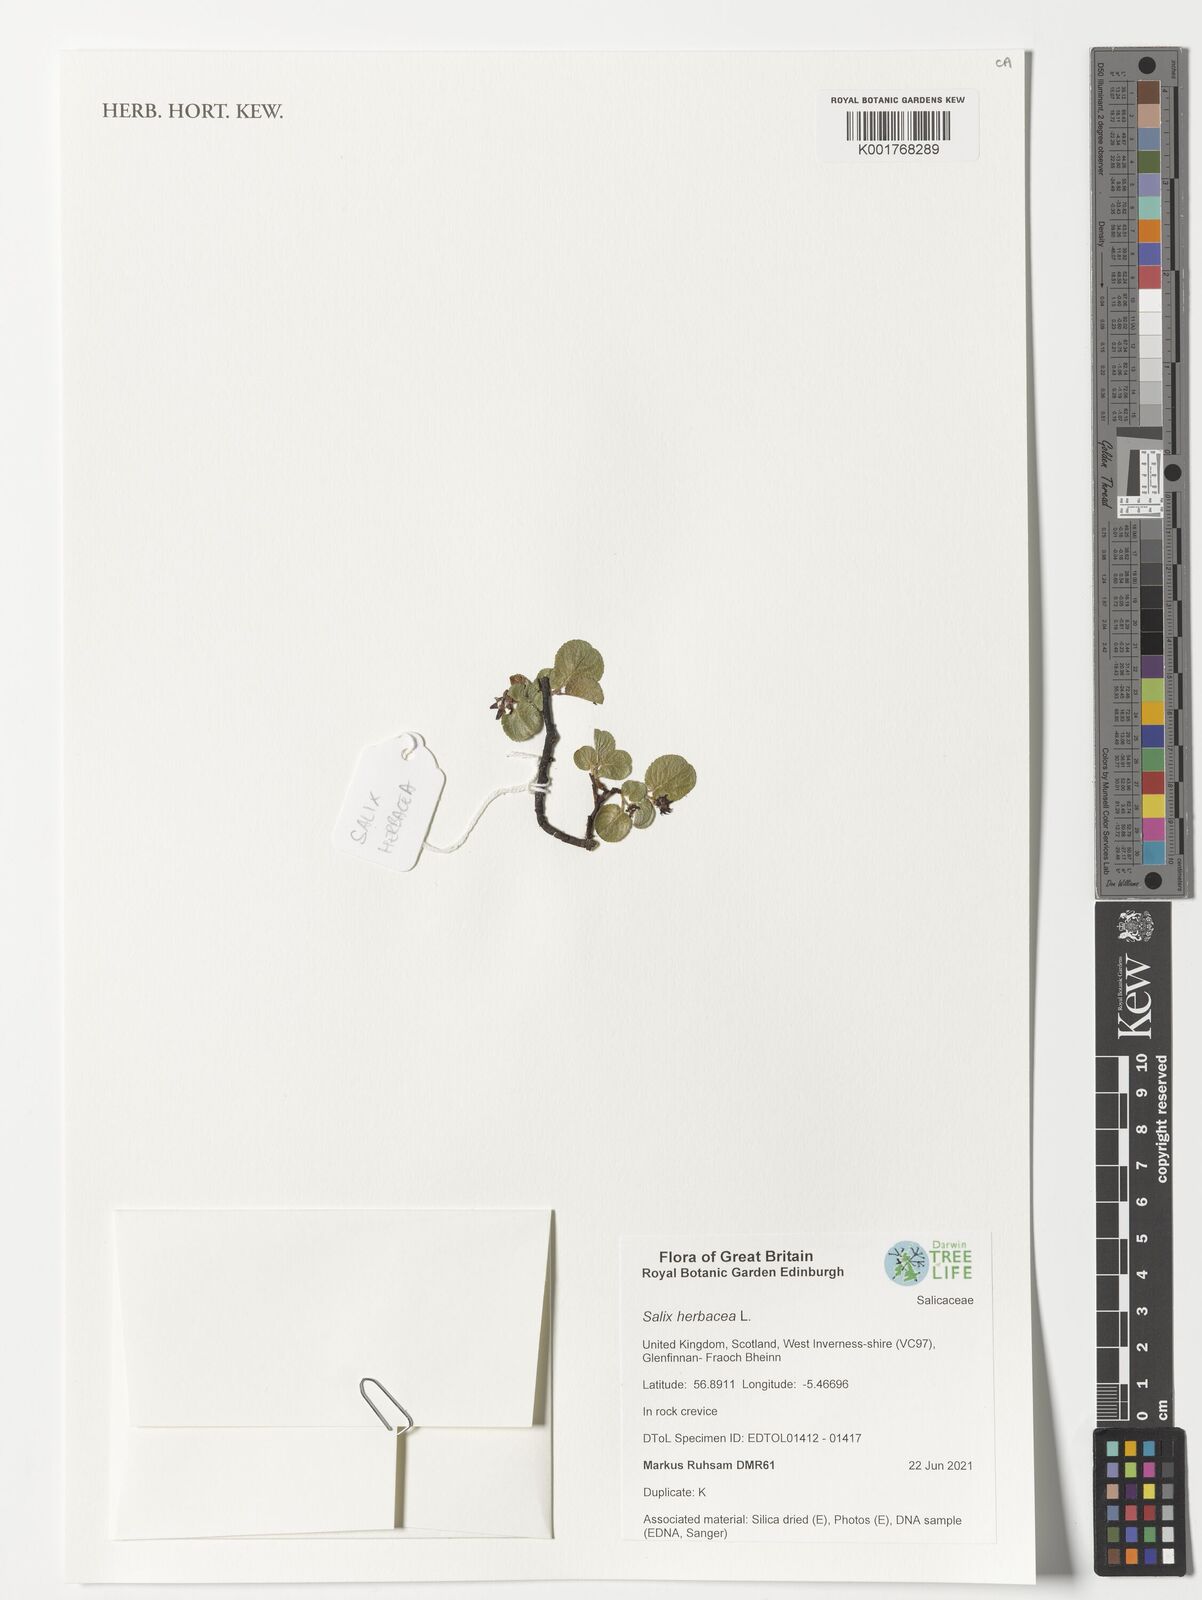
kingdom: Plantae
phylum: Tracheophyta
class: Magnoliopsida
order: Malpighiales
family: Salicaceae
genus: Salix
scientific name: Salix herbacea
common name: Dwarf willow
